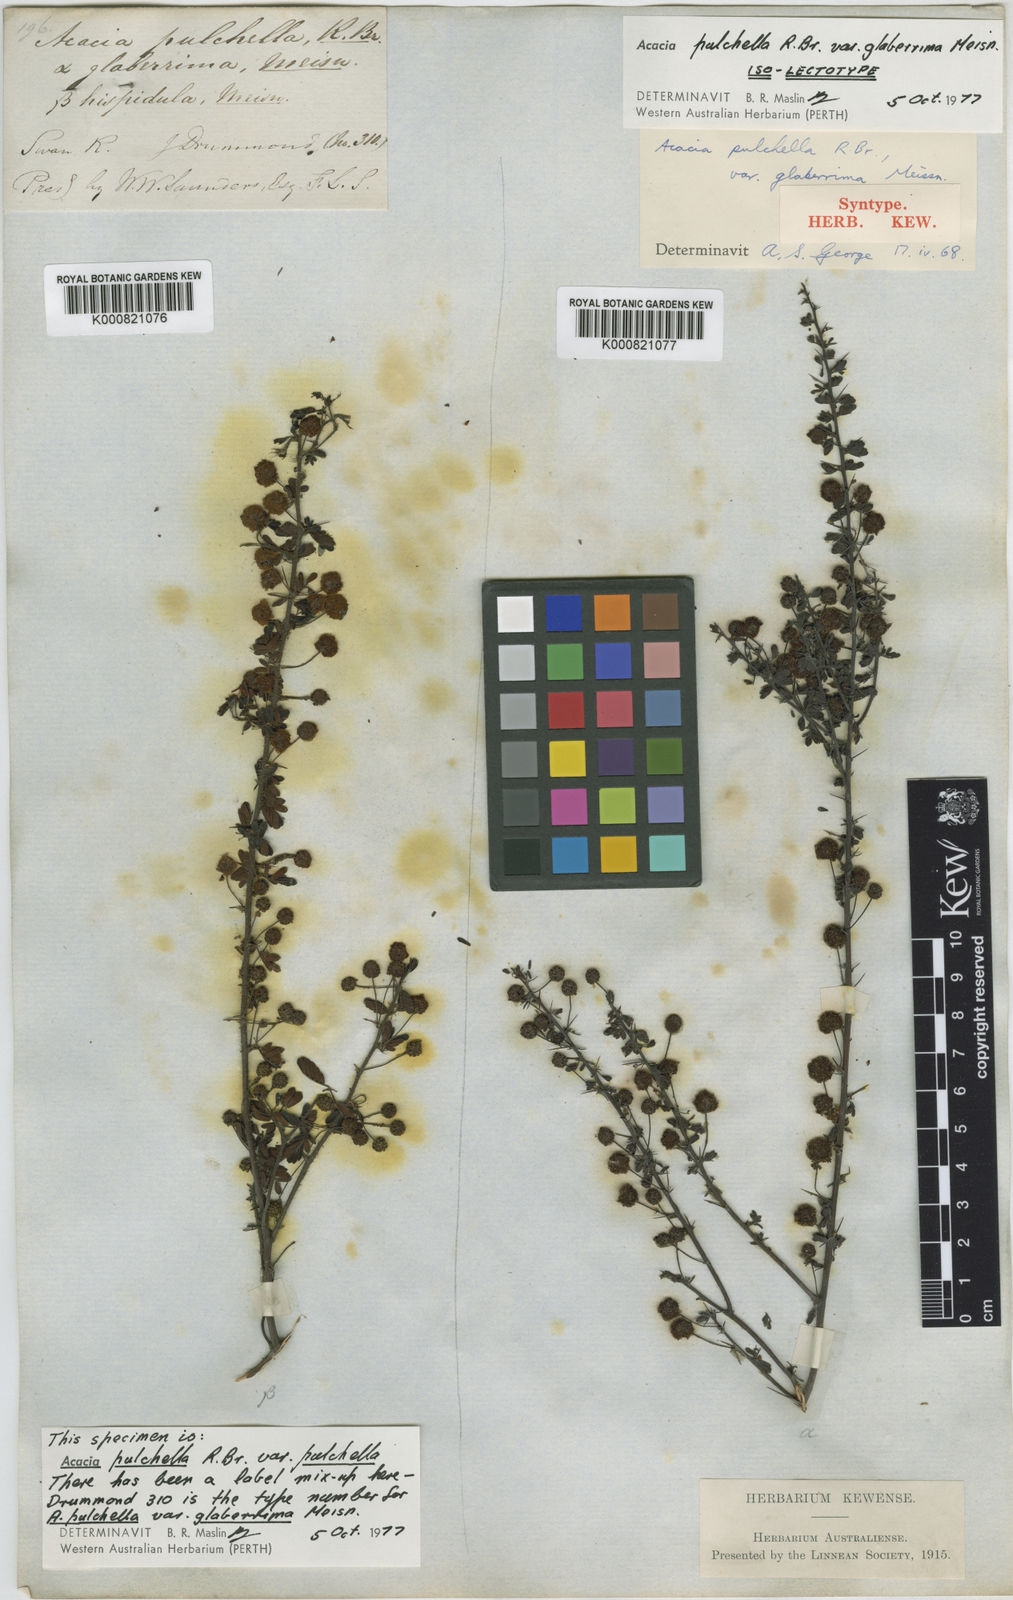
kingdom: Plantae
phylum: Tracheophyta
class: Magnoliopsida
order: Fabales
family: Fabaceae
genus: Acacia
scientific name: Acacia pulchella
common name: Prickly moses
